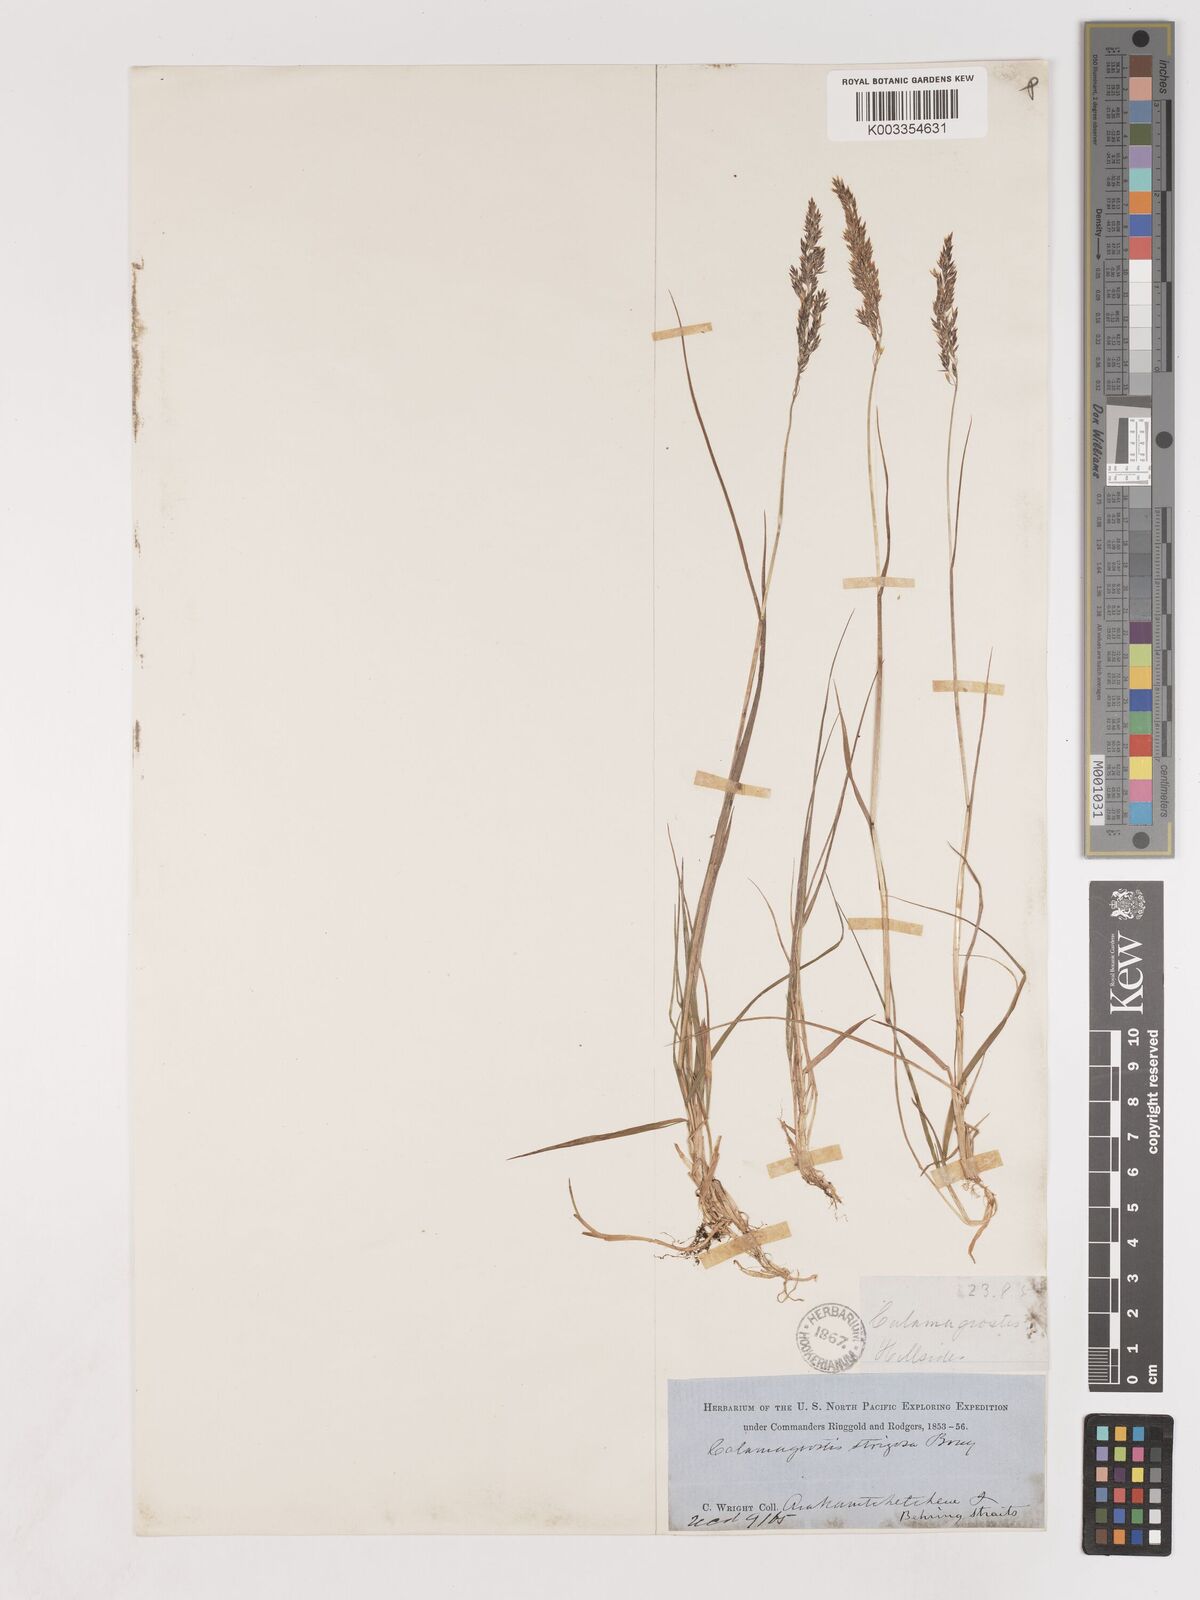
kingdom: Plantae
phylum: Tracheophyta
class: Liliopsida
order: Poales
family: Poaceae
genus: Calamagrostis
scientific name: Calamagrostis nutkaensis
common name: Pacific reed grass
